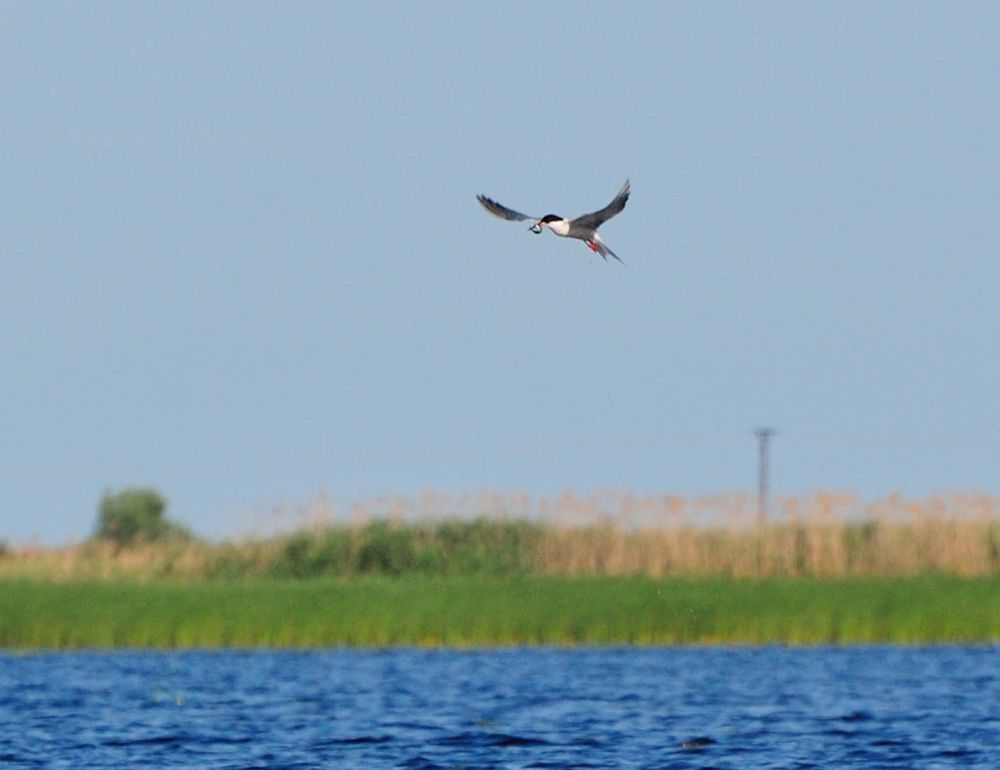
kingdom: Animalia
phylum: Chordata
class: Aves
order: Charadriiformes
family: Laridae
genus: Sterna
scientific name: Sterna hirundo
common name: Common tern
